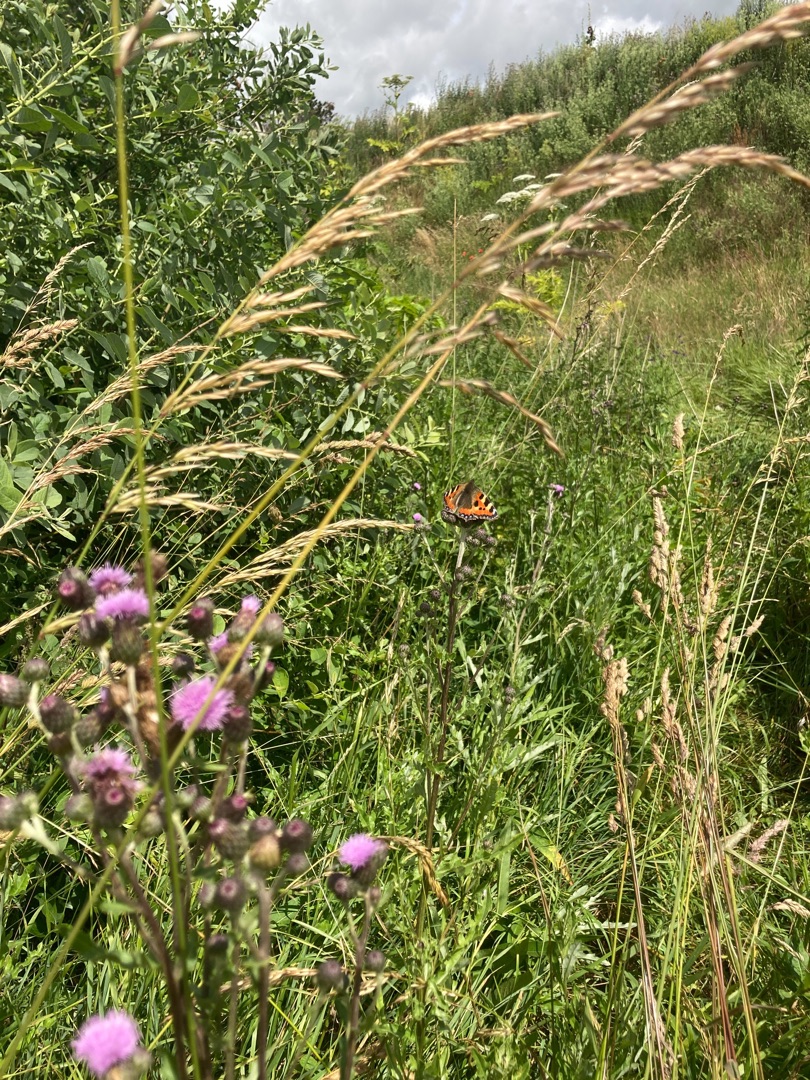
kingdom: Animalia
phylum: Arthropoda
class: Insecta
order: Lepidoptera
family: Nymphalidae
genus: Aglais
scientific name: Aglais urticae
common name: Nældens takvinge
